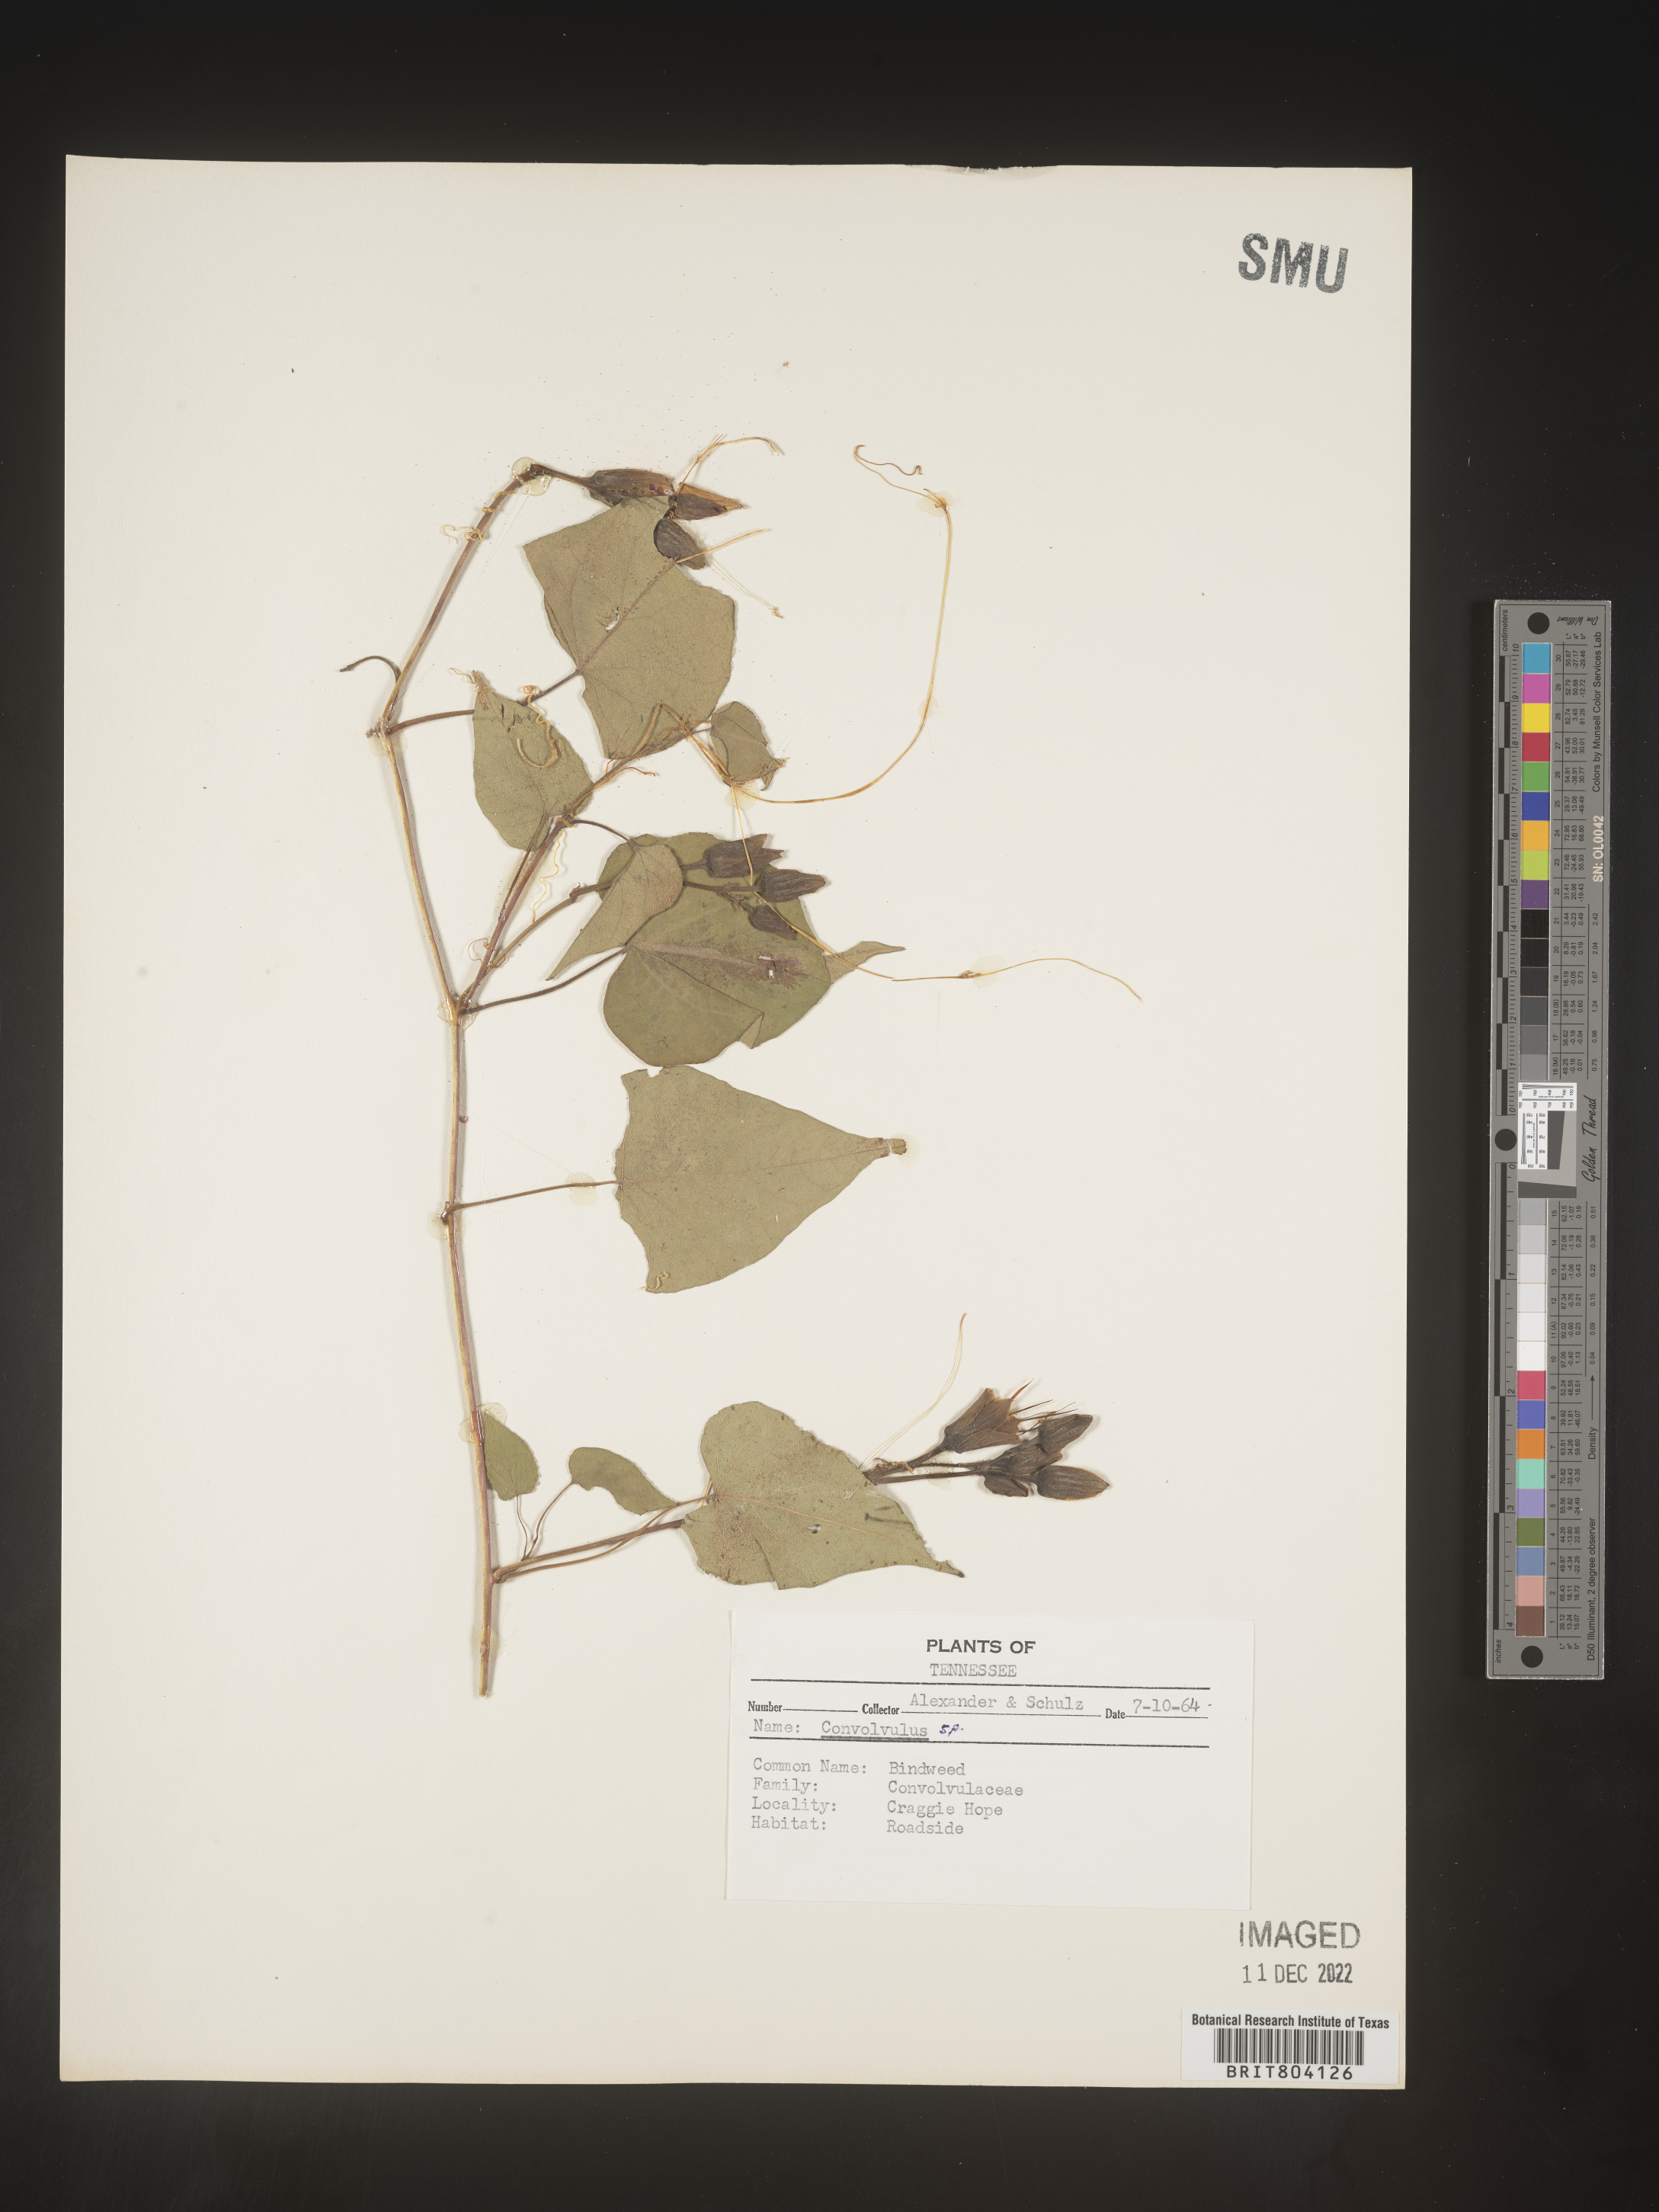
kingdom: Plantae
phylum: Tracheophyta
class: Magnoliopsida
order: Solanales
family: Convolvulaceae
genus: Convolvulus
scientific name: Convolvulus
